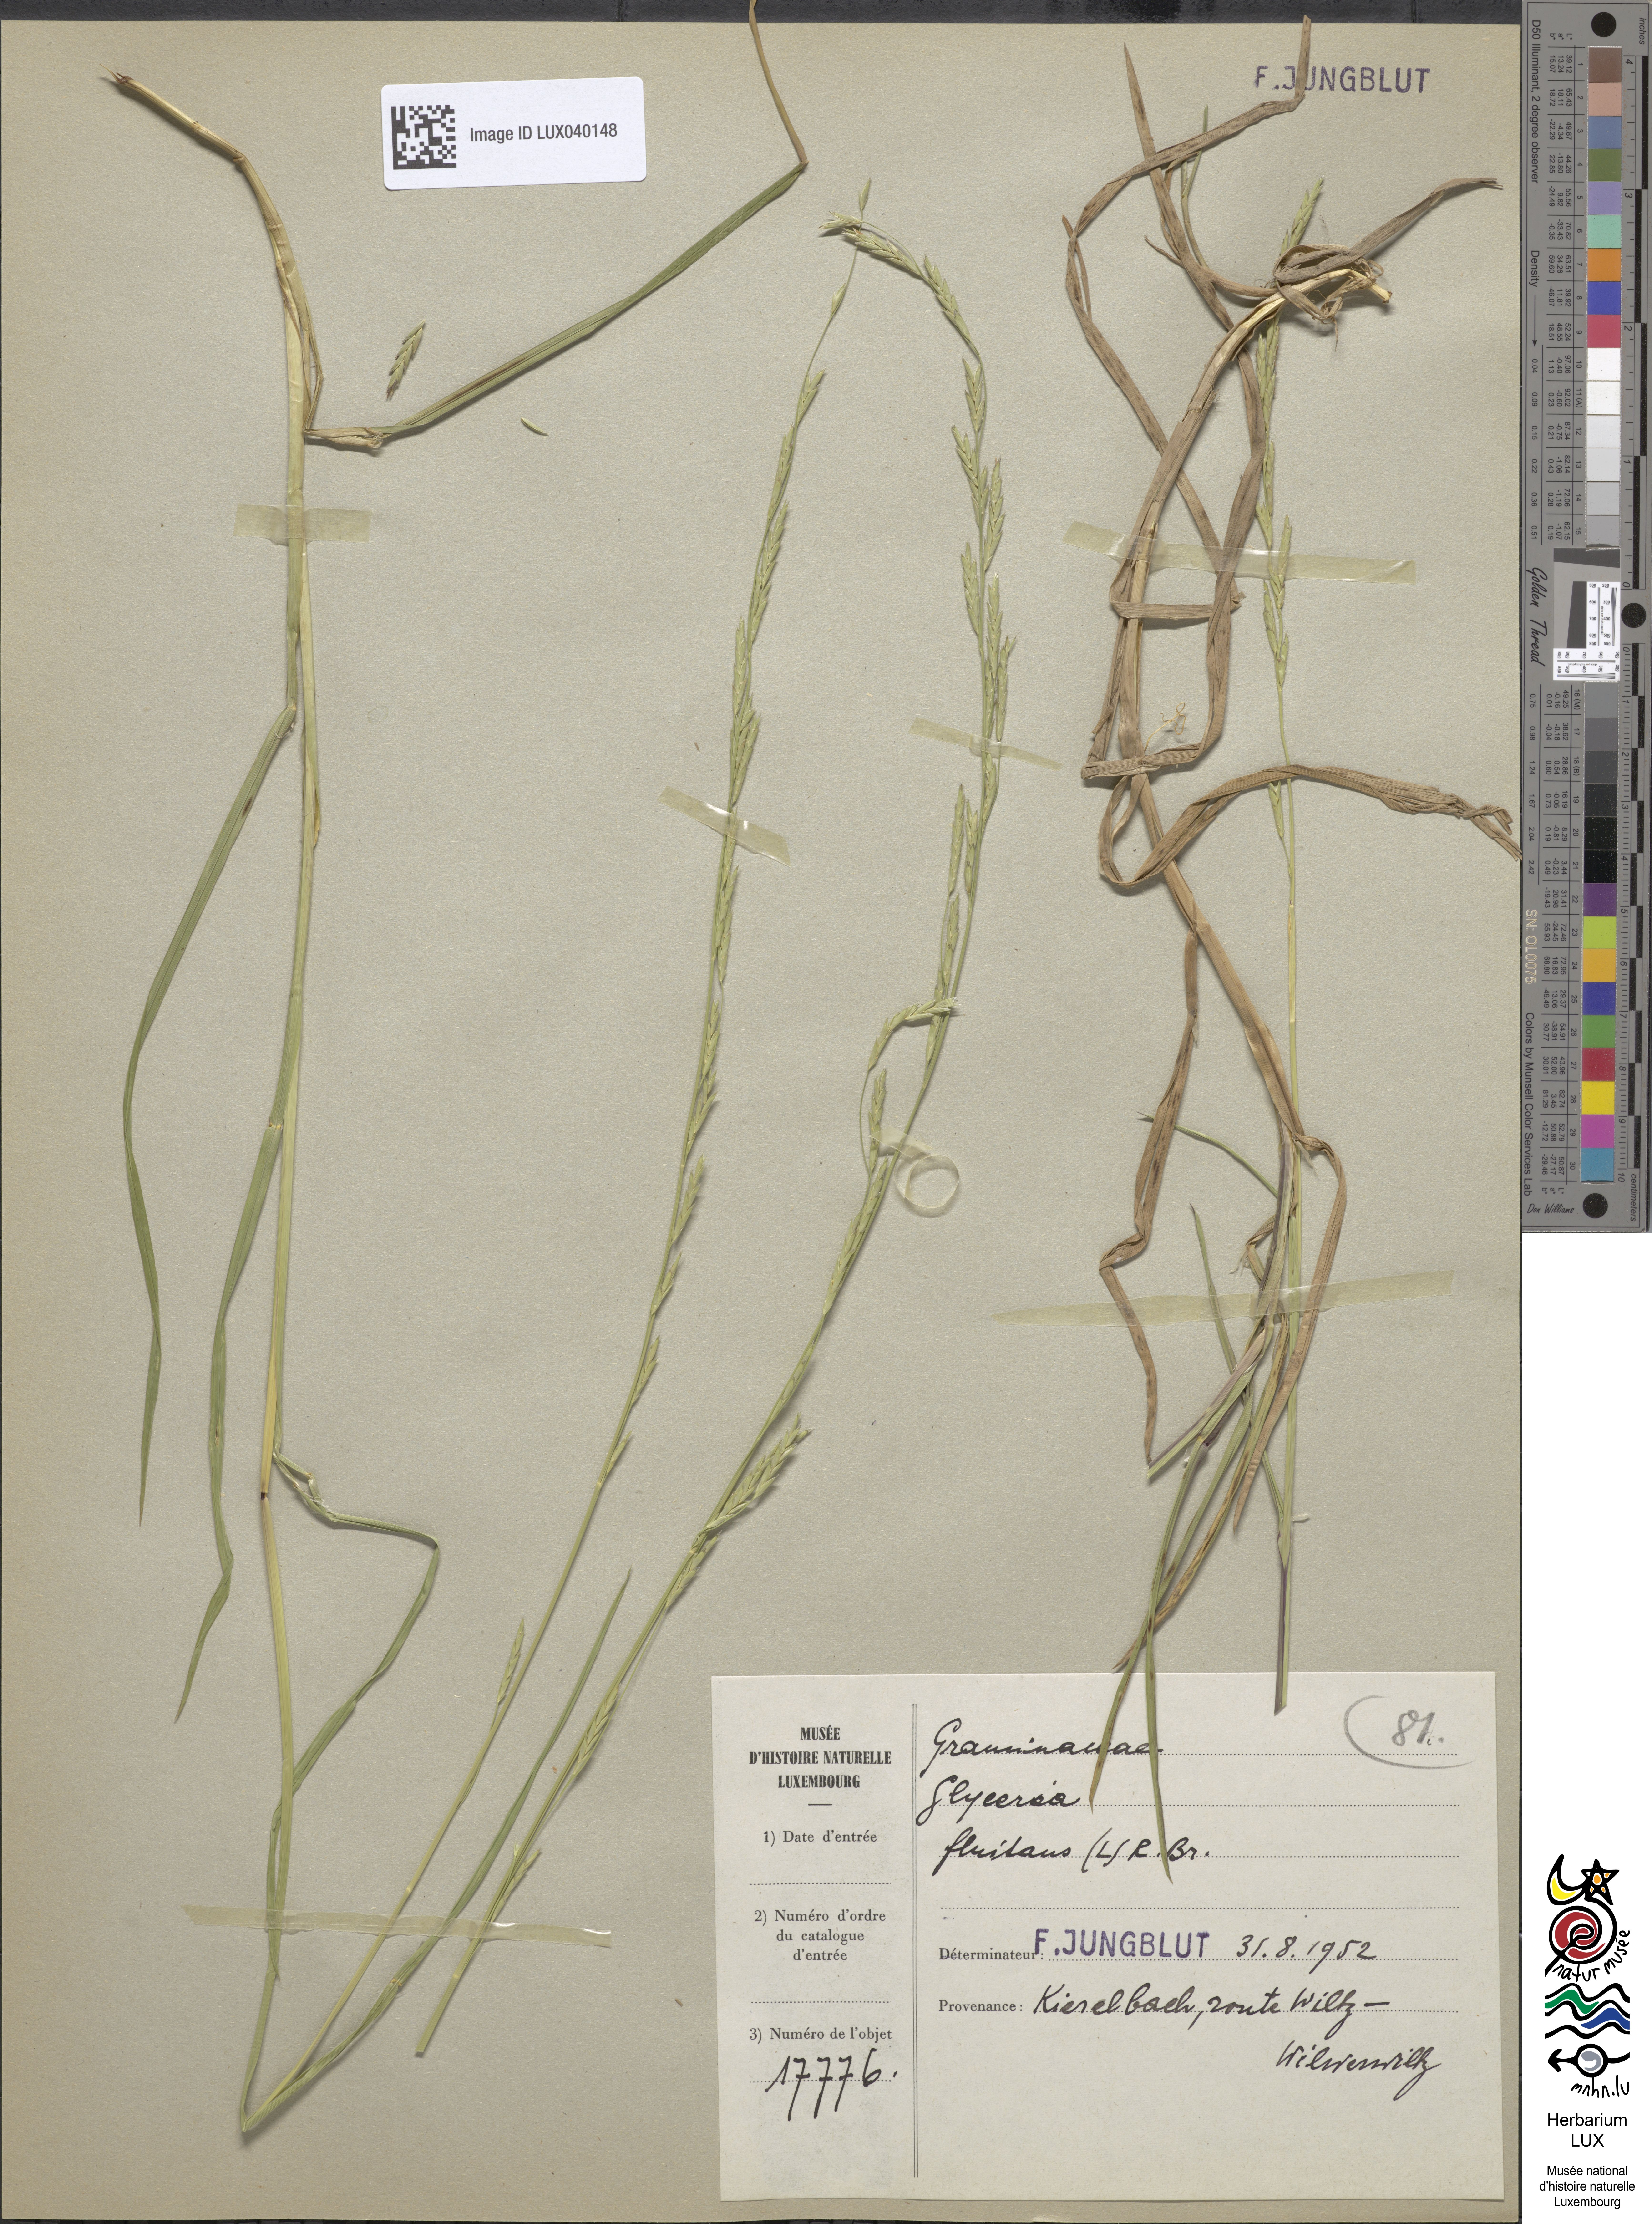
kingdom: Plantae
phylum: Tracheophyta
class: Liliopsida
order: Poales
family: Poaceae
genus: Glyceria
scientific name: Glyceria fluitans
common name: Floating sweet-grass
